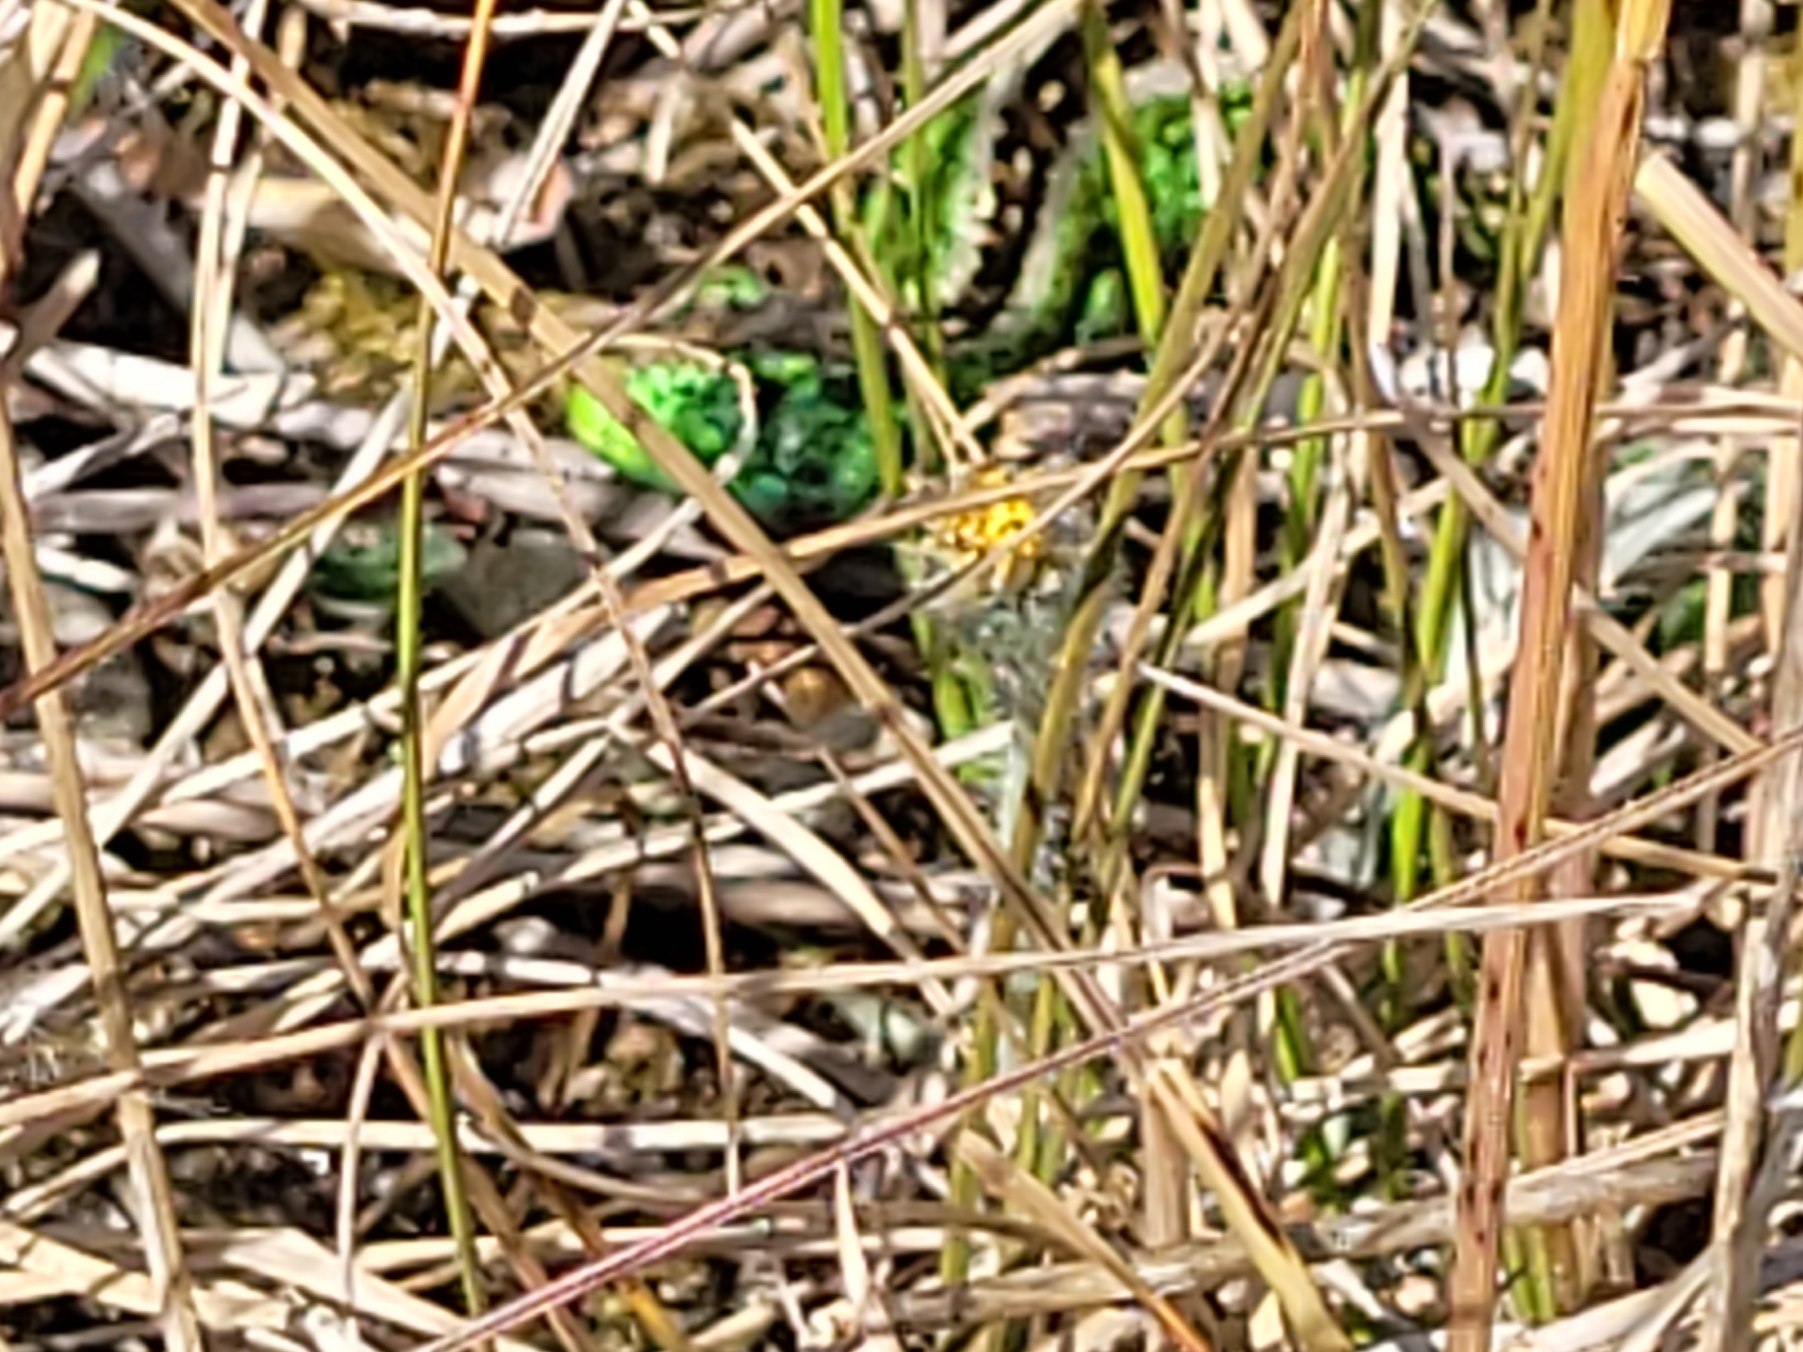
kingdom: Animalia
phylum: Chordata
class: Squamata
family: Lacertidae
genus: Lacerta
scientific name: Lacerta agilis
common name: Markfirben
